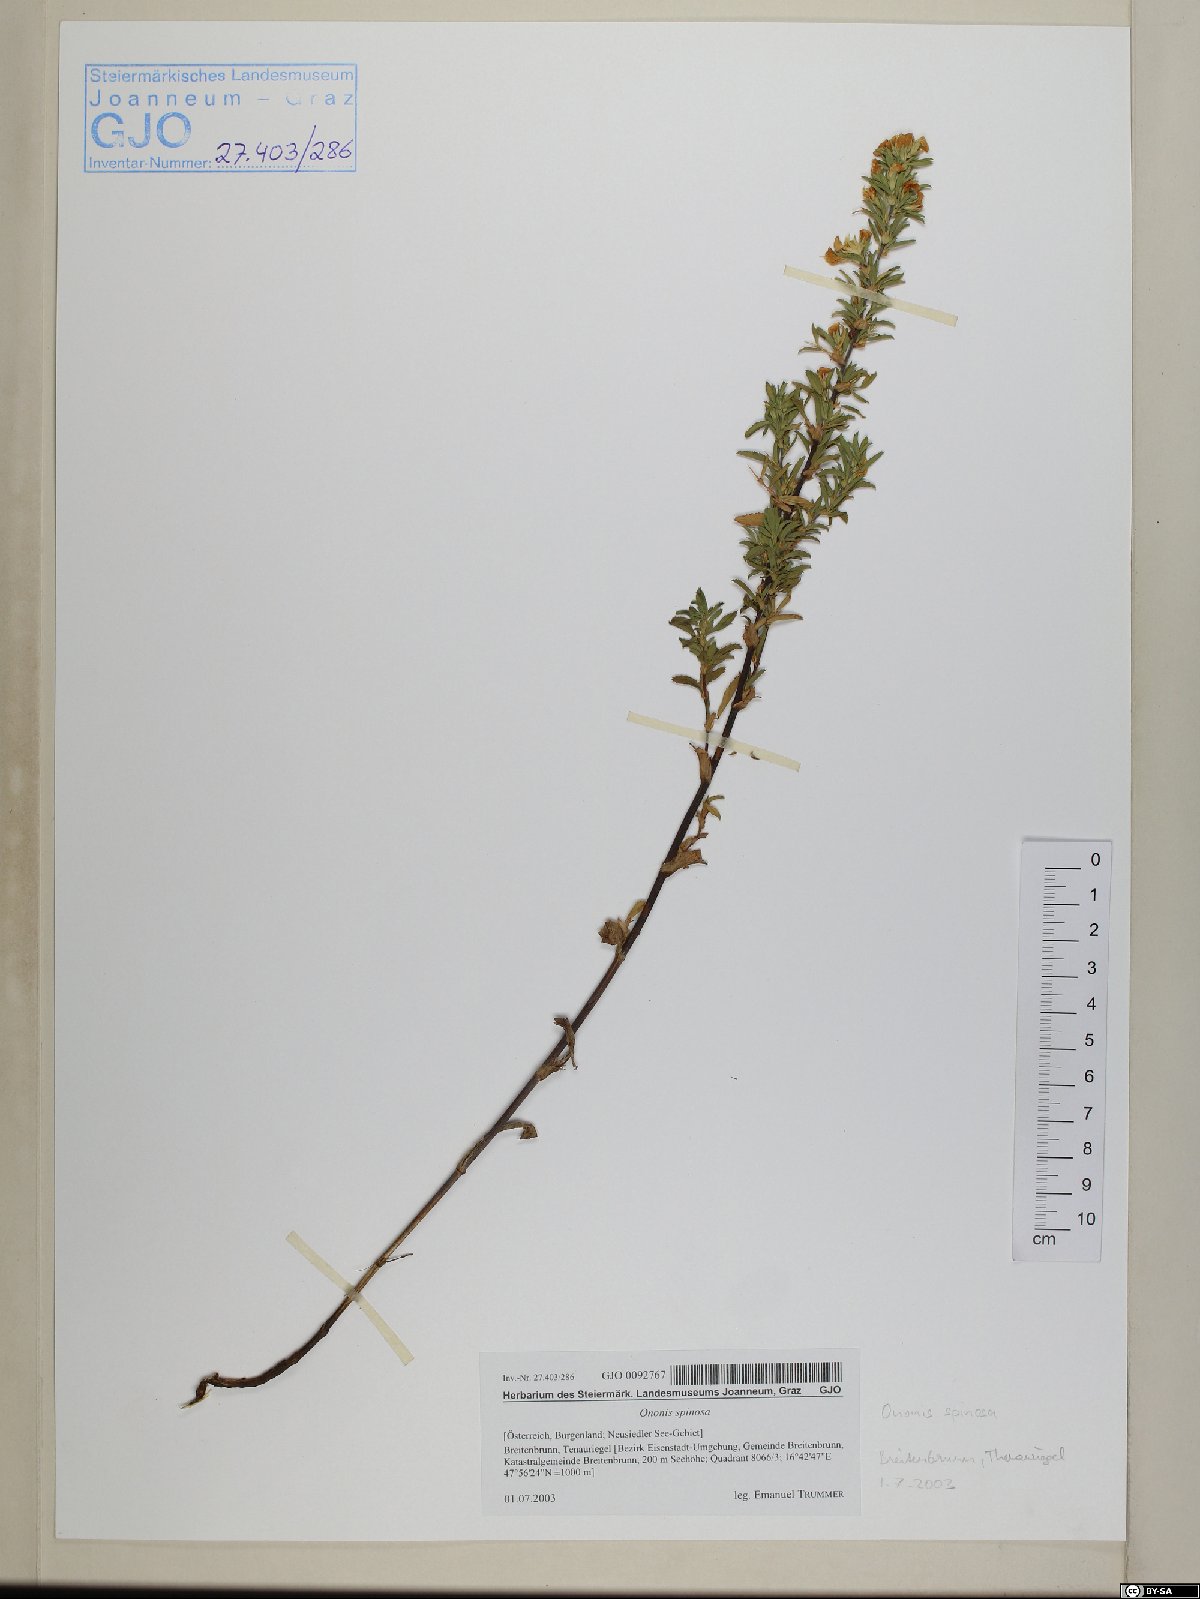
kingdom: Plantae
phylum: Tracheophyta
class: Magnoliopsida
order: Fabales
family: Fabaceae
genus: Ononis
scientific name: Ononis spinosa
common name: Spiny restharrow
